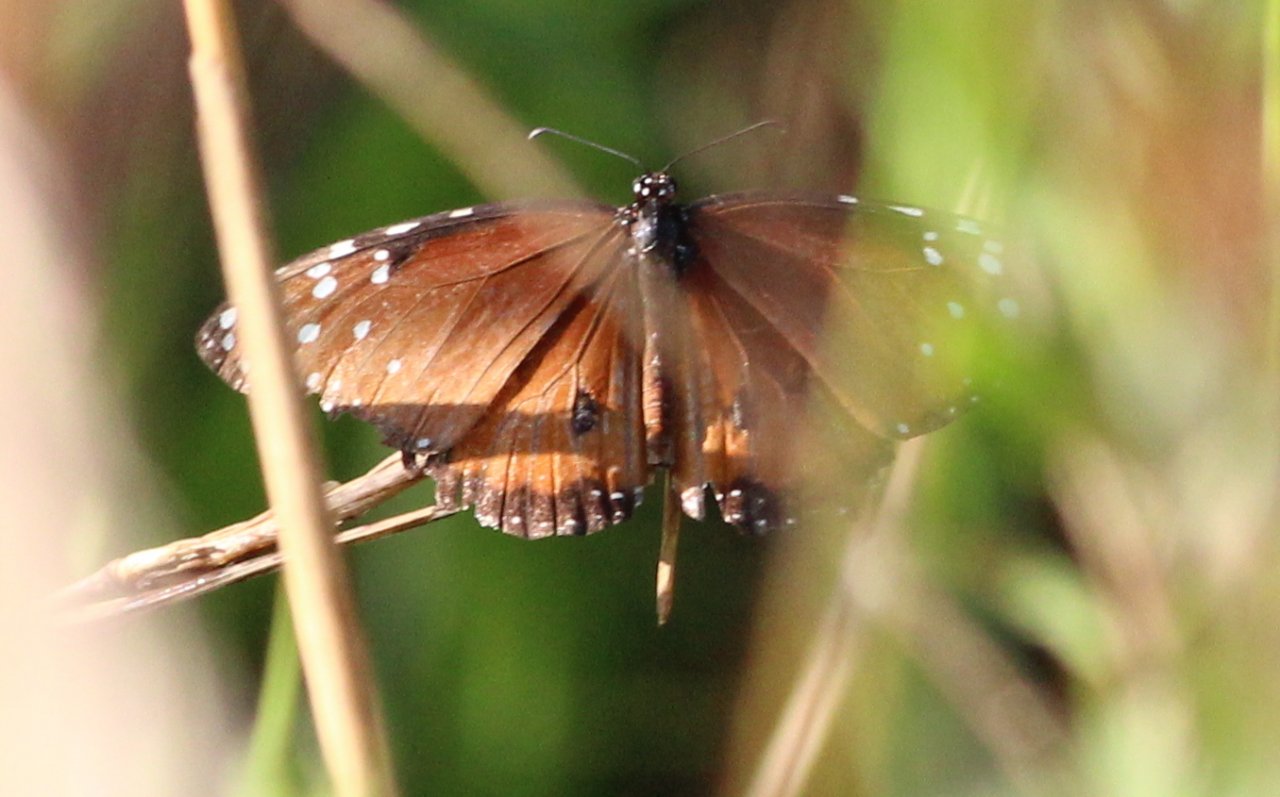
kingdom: Animalia
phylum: Arthropoda
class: Insecta
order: Lepidoptera
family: Nymphalidae
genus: Danaus
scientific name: Danaus gilippus
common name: Queen
